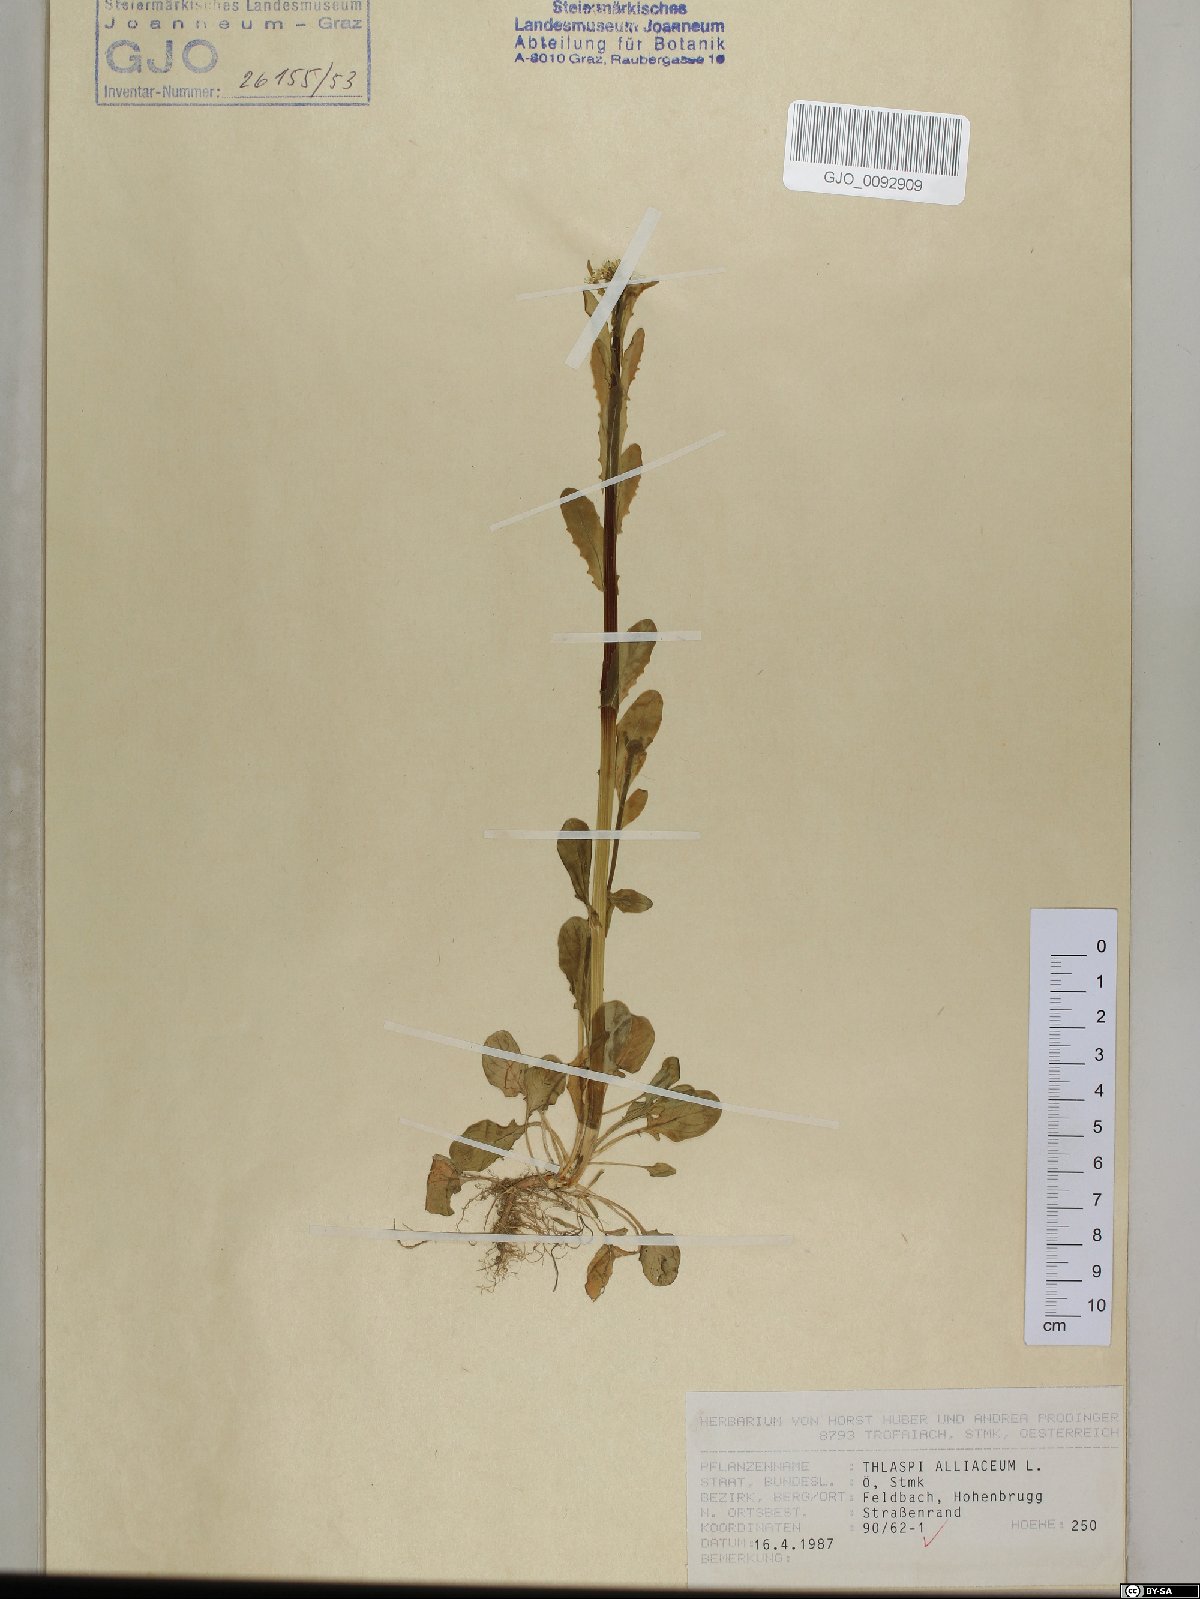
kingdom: Plantae
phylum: Tracheophyta
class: Magnoliopsida
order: Brassicales
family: Brassicaceae
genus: Mummenhoffia
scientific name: Mummenhoffia alliacea
